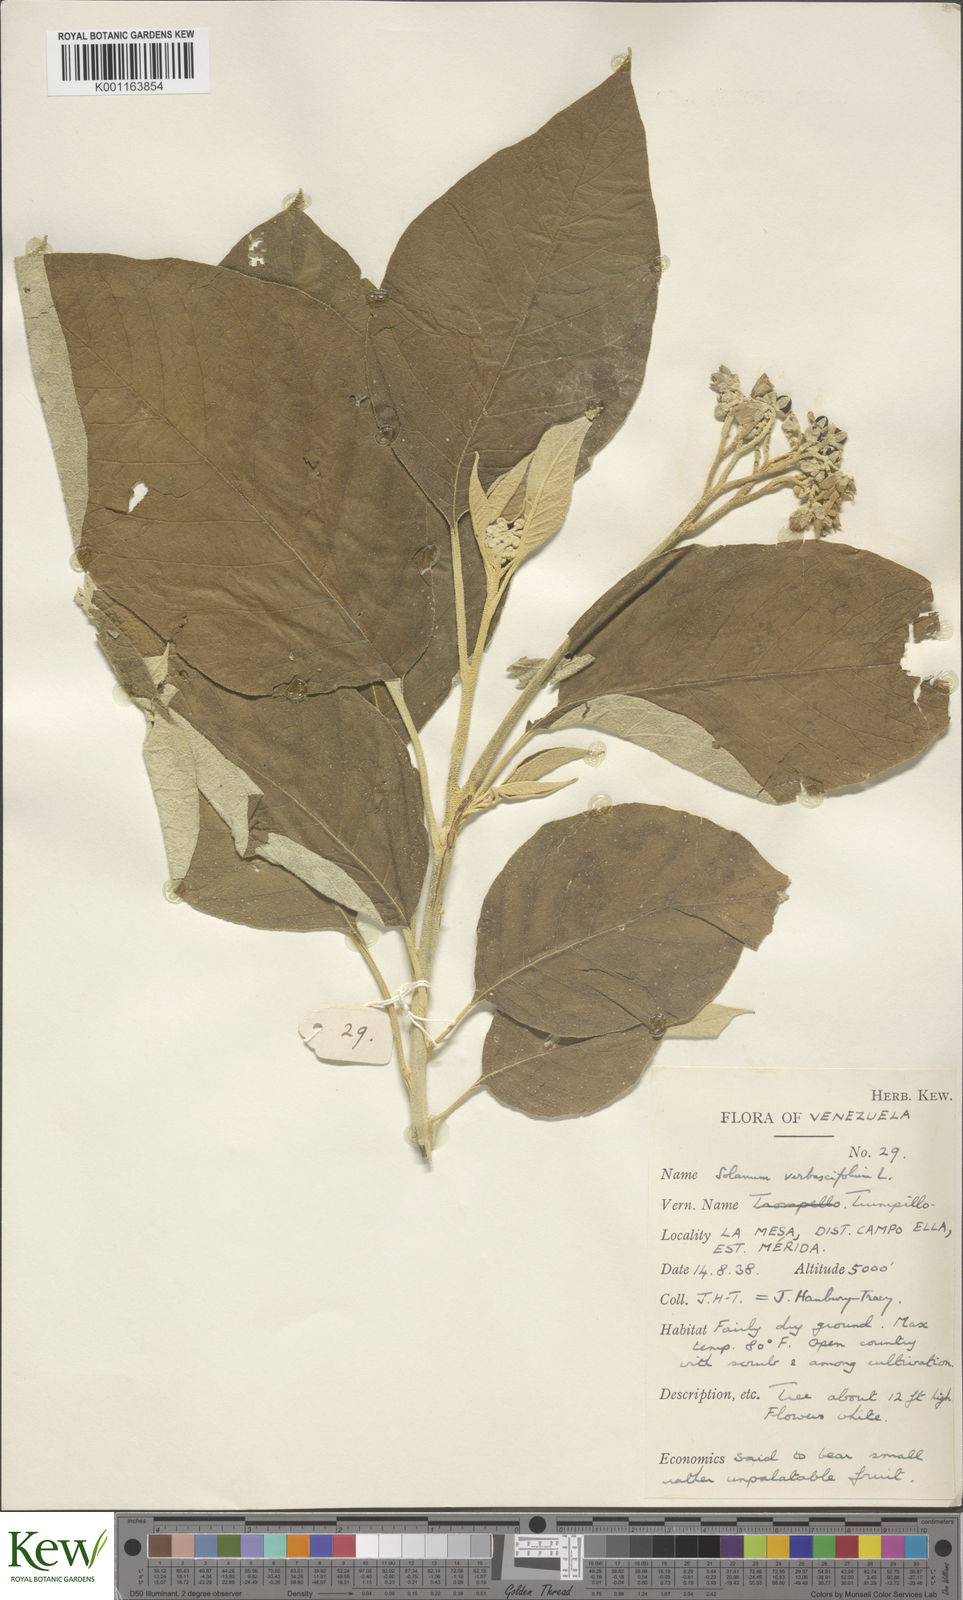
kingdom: Plantae
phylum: Tracheophyta
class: Magnoliopsida
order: Solanales
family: Solanaceae
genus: Solanum
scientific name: Solanum erianthum
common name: Tobacco-tree
